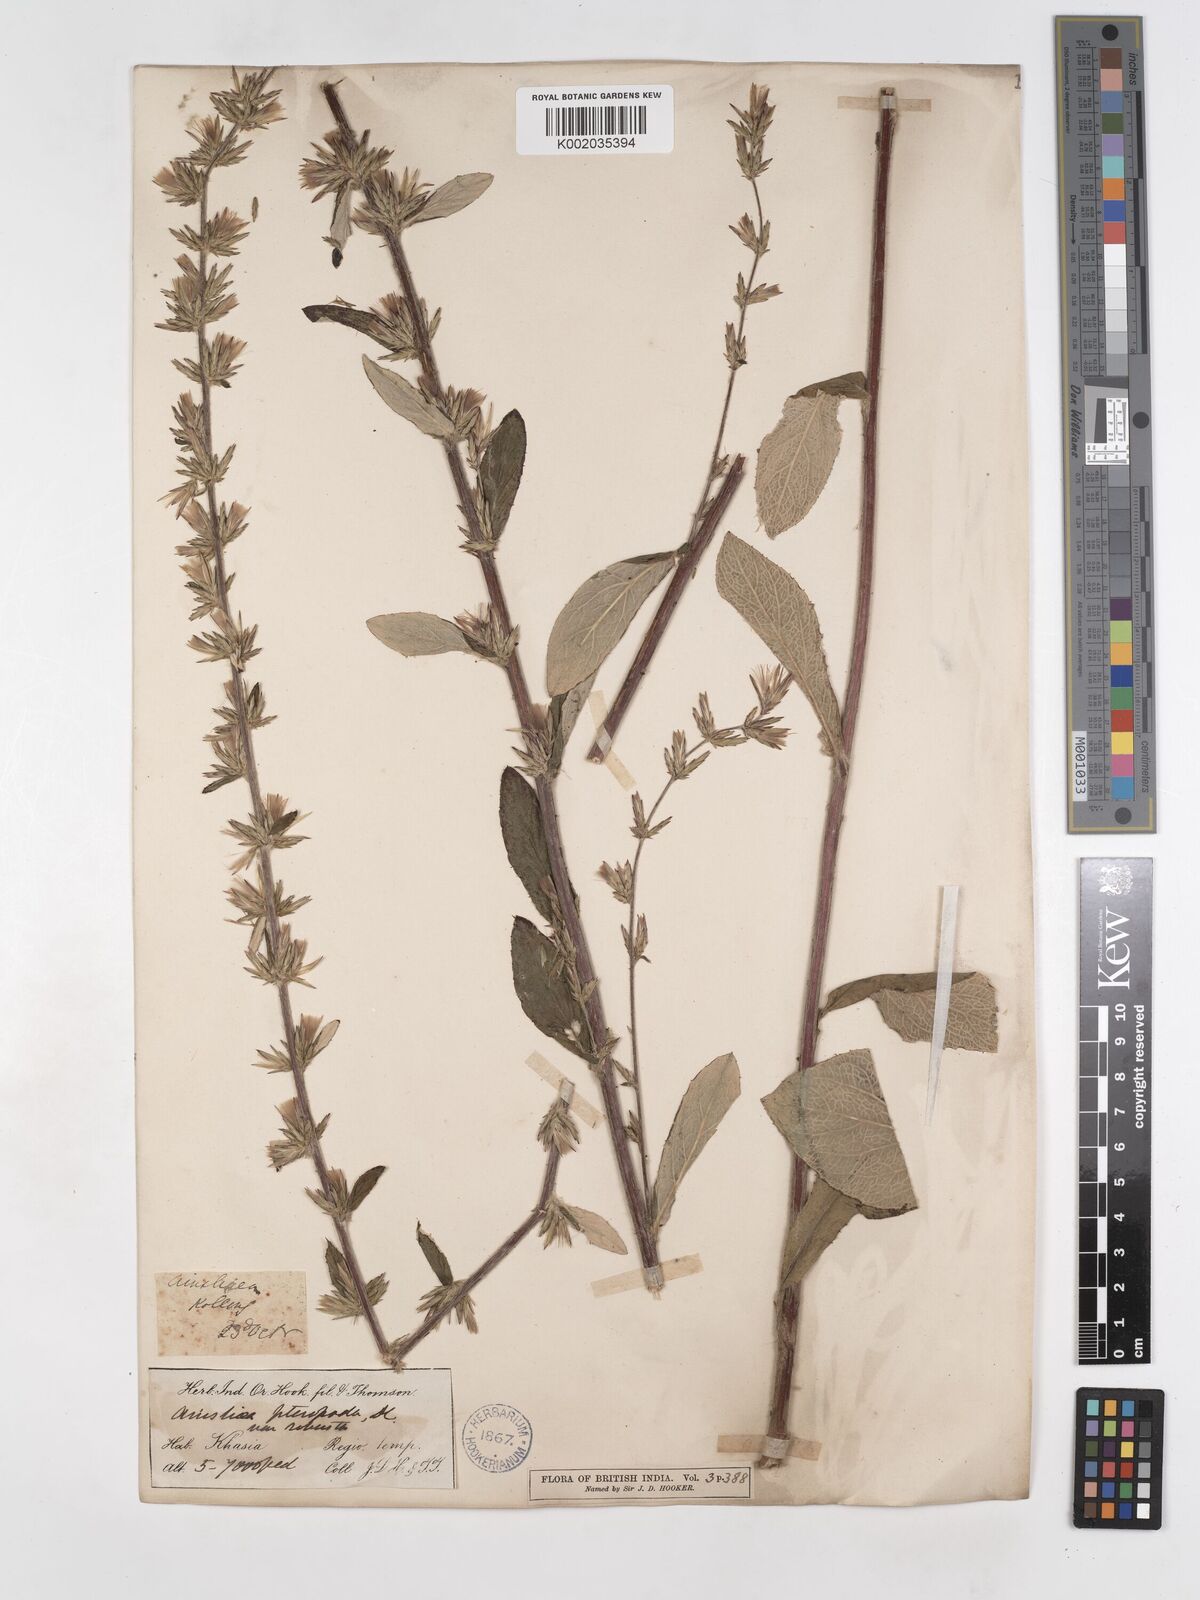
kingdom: Plantae
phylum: Tracheophyta
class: Magnoliopsida
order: Asterales
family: Asteraceae
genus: Ainsliaea
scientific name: Ainsliaea latifolia
